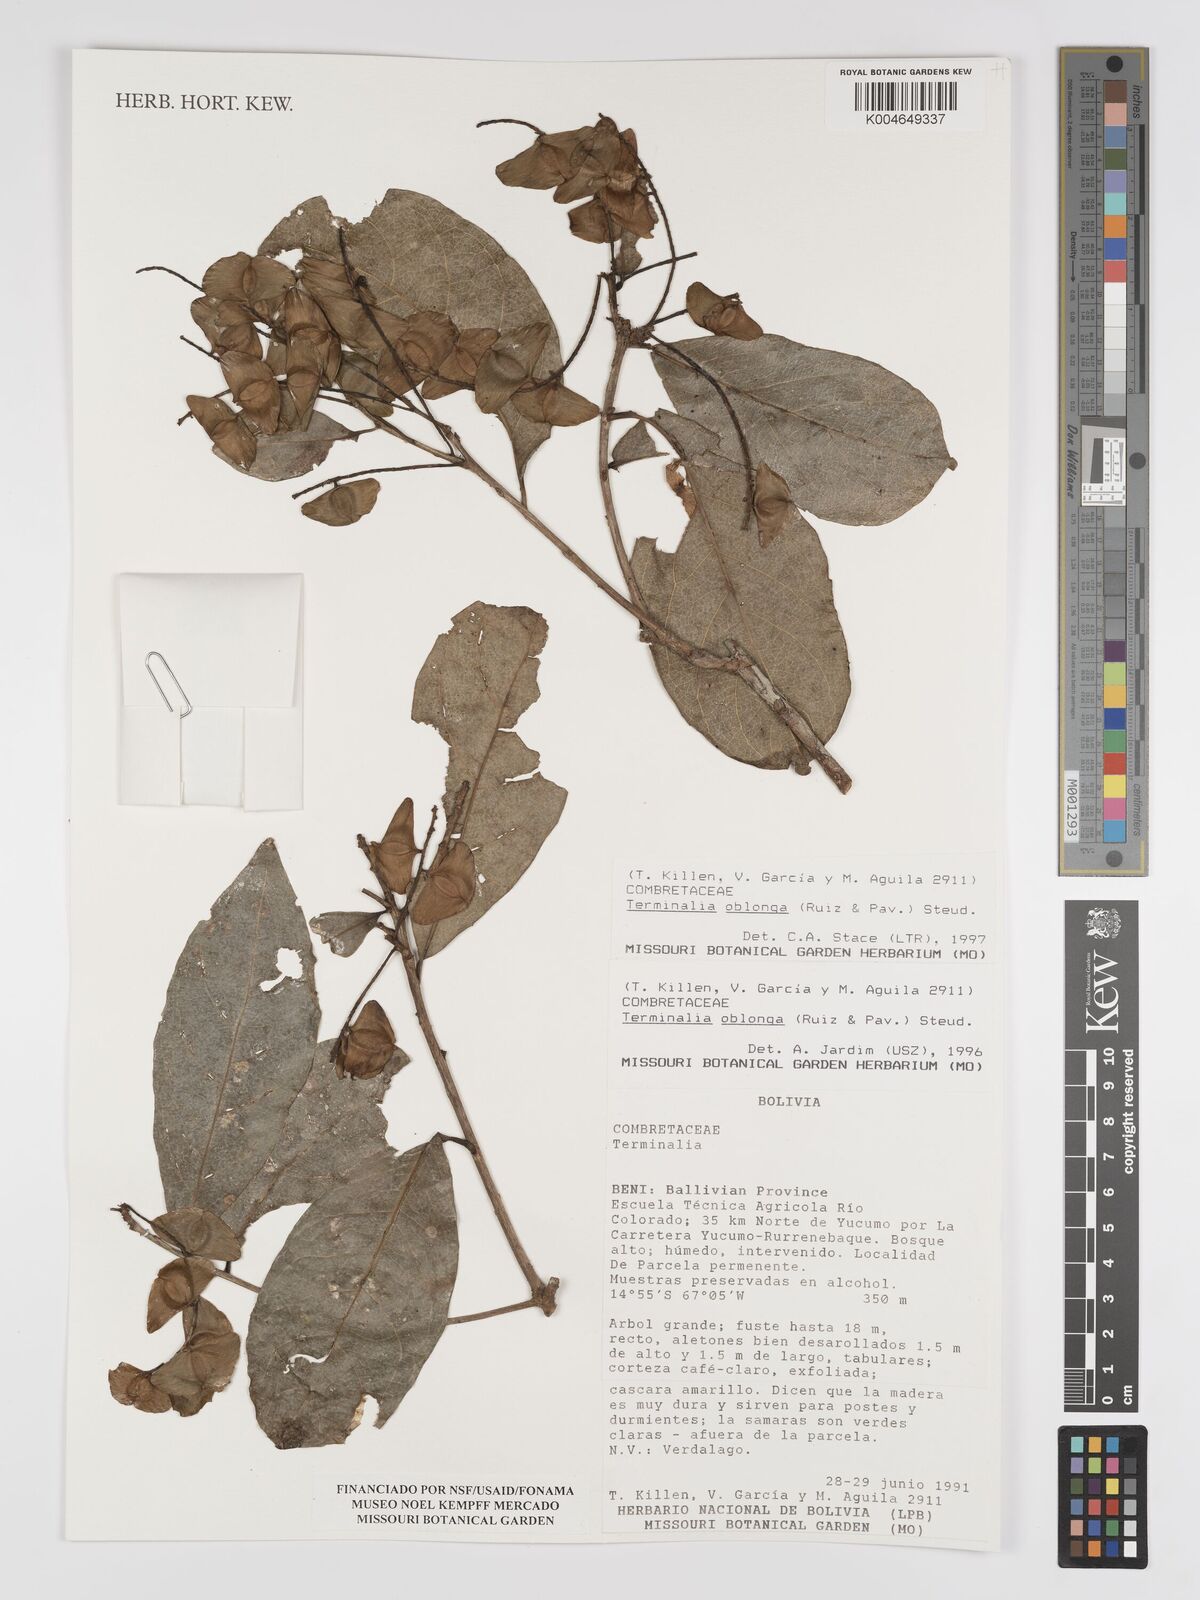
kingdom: Plantae
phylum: Tracheophyta
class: Magnoliopsida
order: Myrtales
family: Combretaceae
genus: Terminalia
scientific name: Terminalia oblonga
